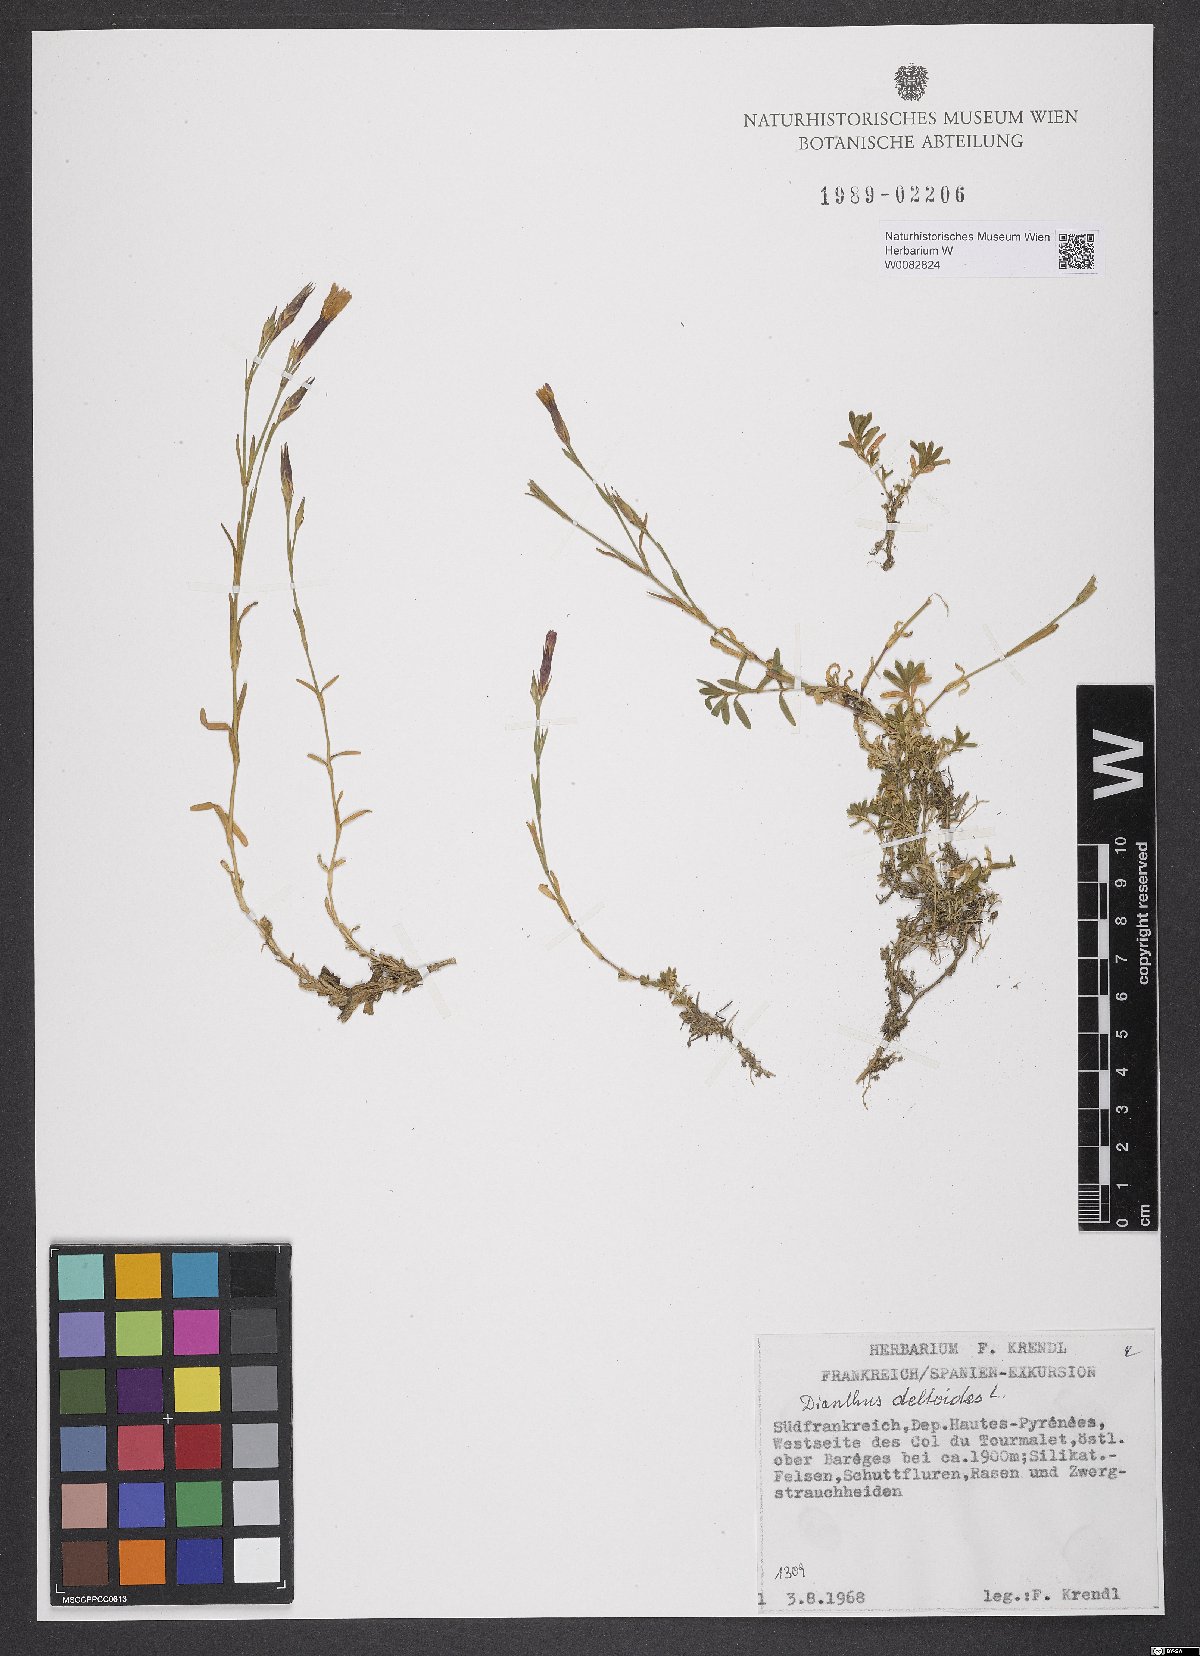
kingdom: Plantae
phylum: Tracheophyta
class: Magnoliopsida
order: Caryophyllales
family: Caryophyllaceae
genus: Dianthus
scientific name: Dianthus deltoides
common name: Maiden pink
